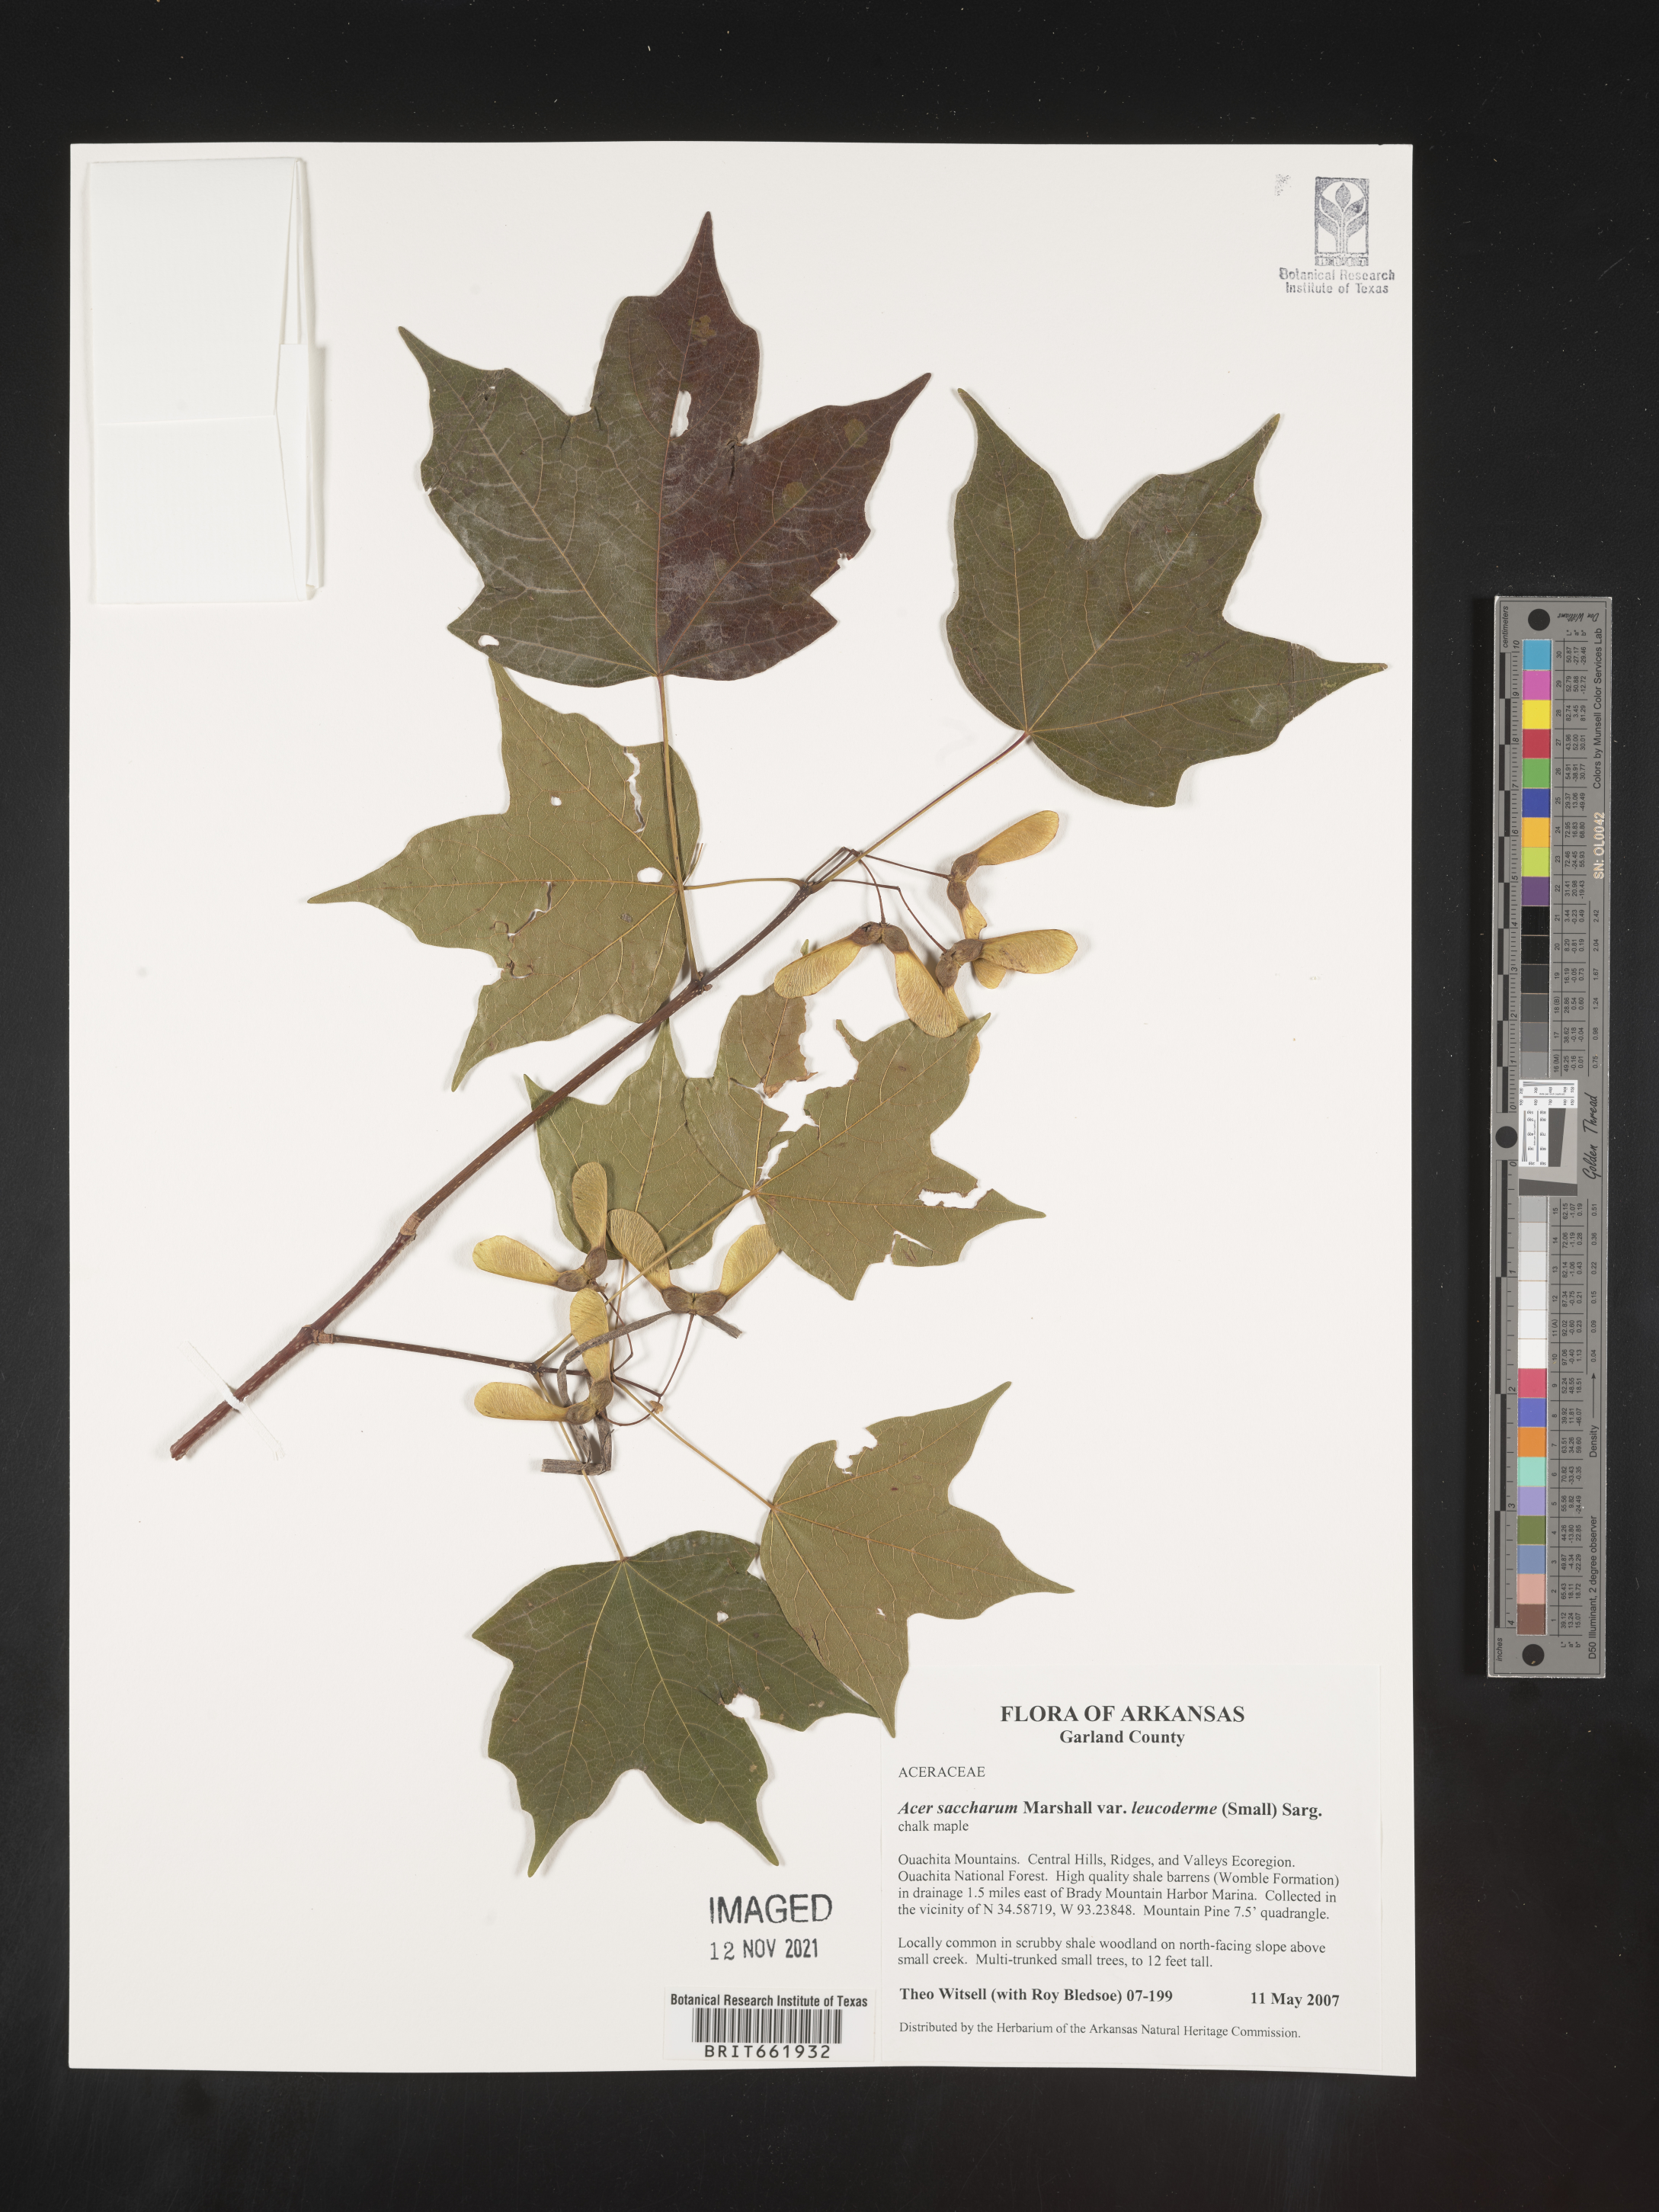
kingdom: Plantae
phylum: Tracheophyta
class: Magnoliopsida
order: Sapindales
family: Sapindaceae
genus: Acer
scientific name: Acer leucoderme
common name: Chalk maple
